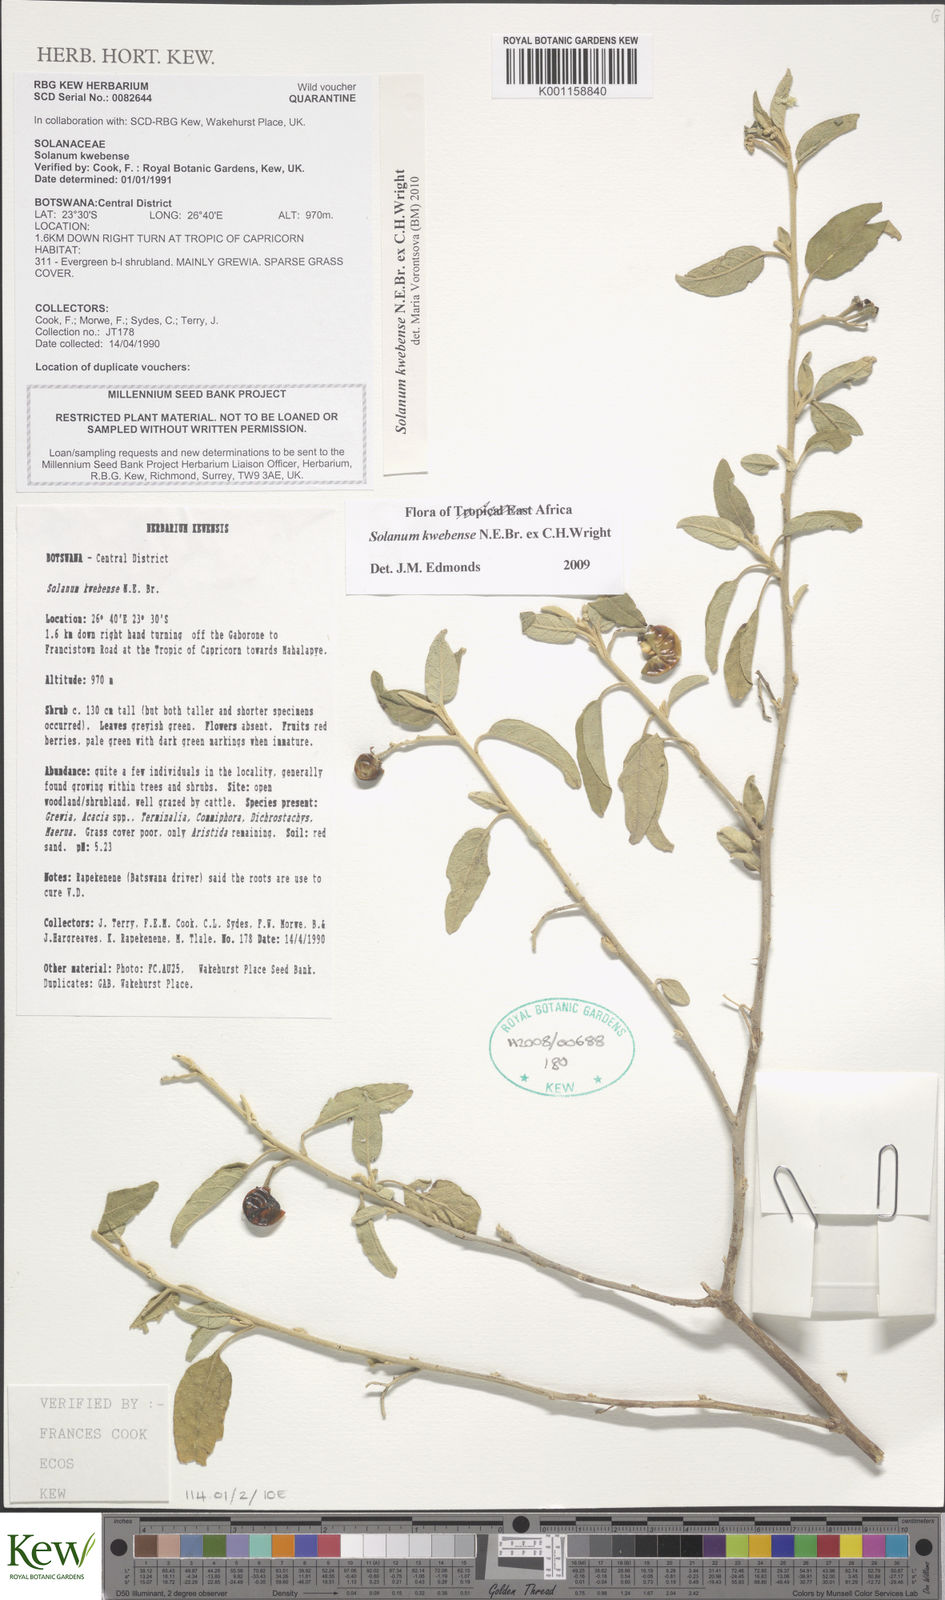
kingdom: Plantae
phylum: Tracheophyta
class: Magnoliopsida
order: Solanales
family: Solanaceae
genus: Solanum
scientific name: Solanum tettense
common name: Mozambique bitter apple
